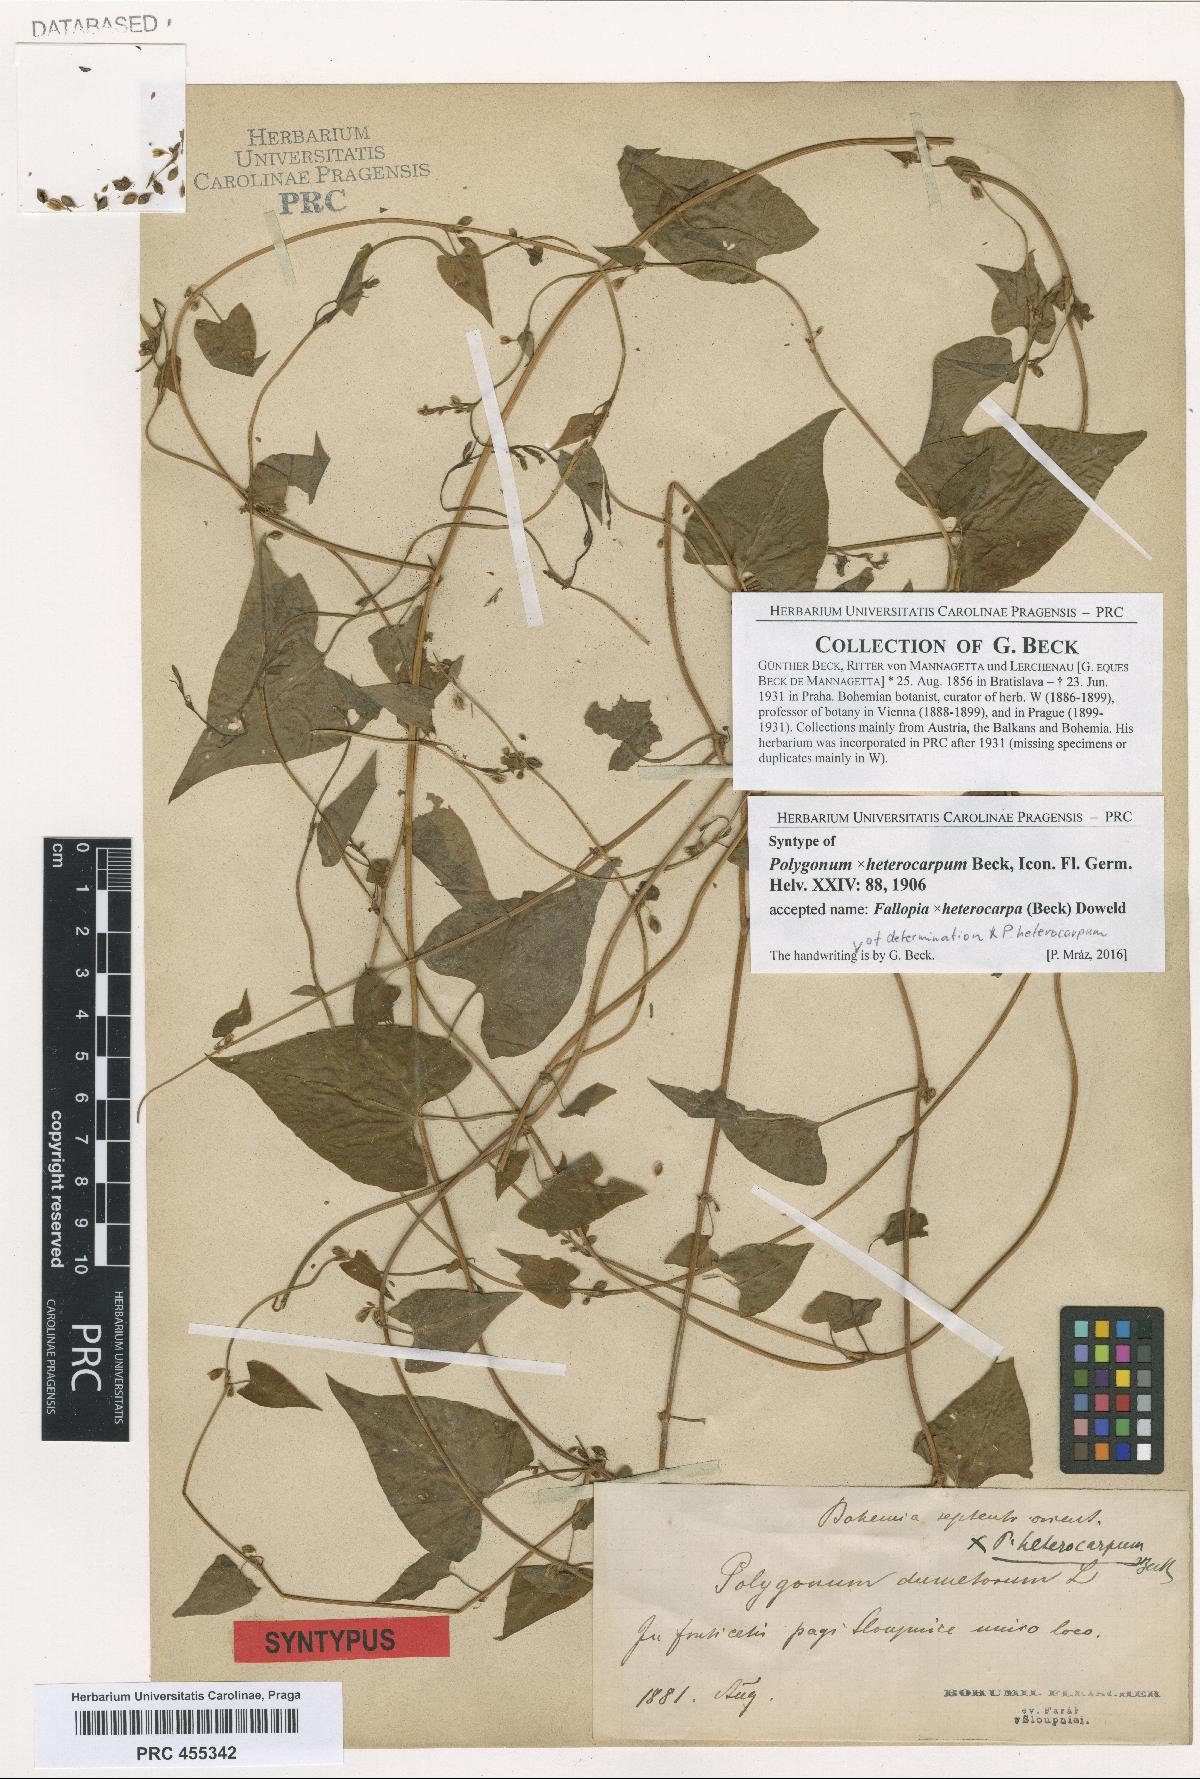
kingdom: Plantae
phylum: Tracheophyta
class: Magnoliopsida
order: Caryophyllales
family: Polygonaceae
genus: Fallopia
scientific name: Fallopia heterocarpa
